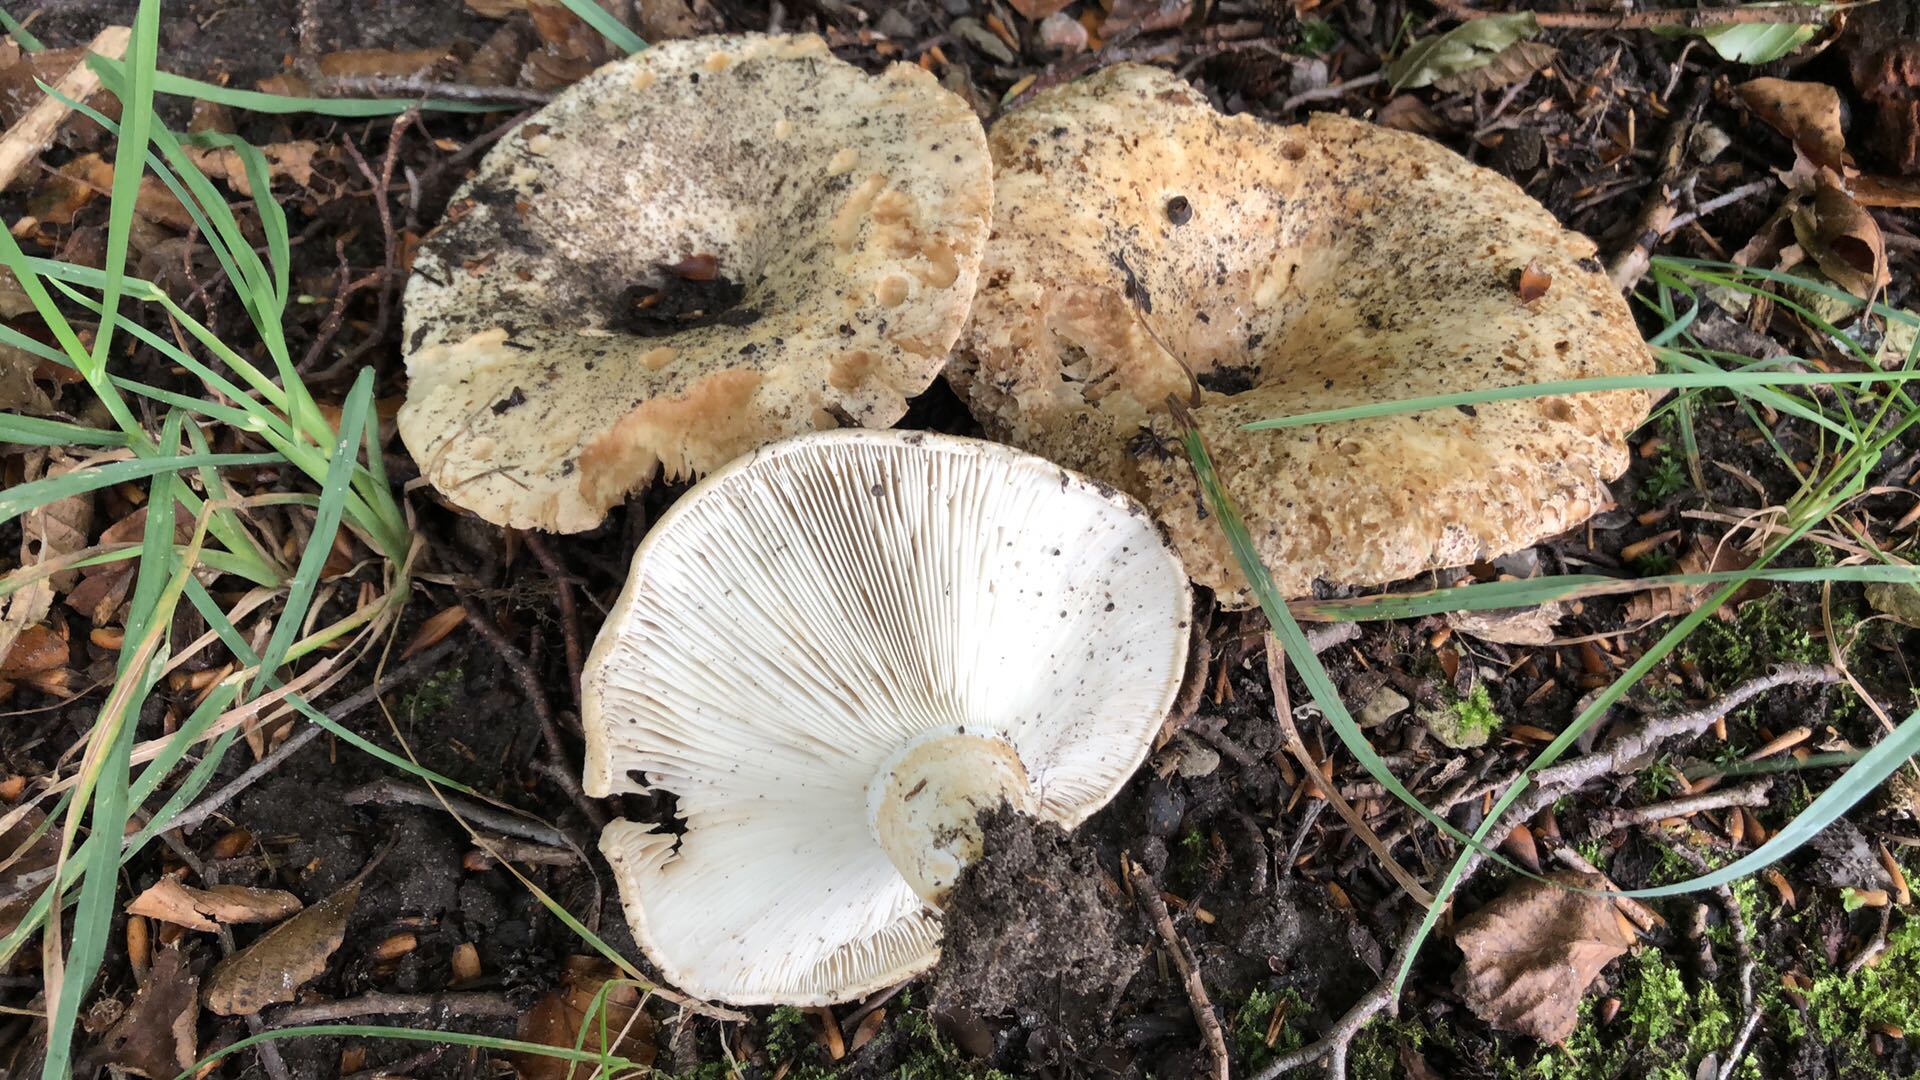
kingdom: Fungi
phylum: Basidiomycota
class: Agaricomycetes
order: Russulales
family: Russulaceae
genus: Russula
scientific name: Russula chloroides
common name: grønhalset tragt-skørhat
